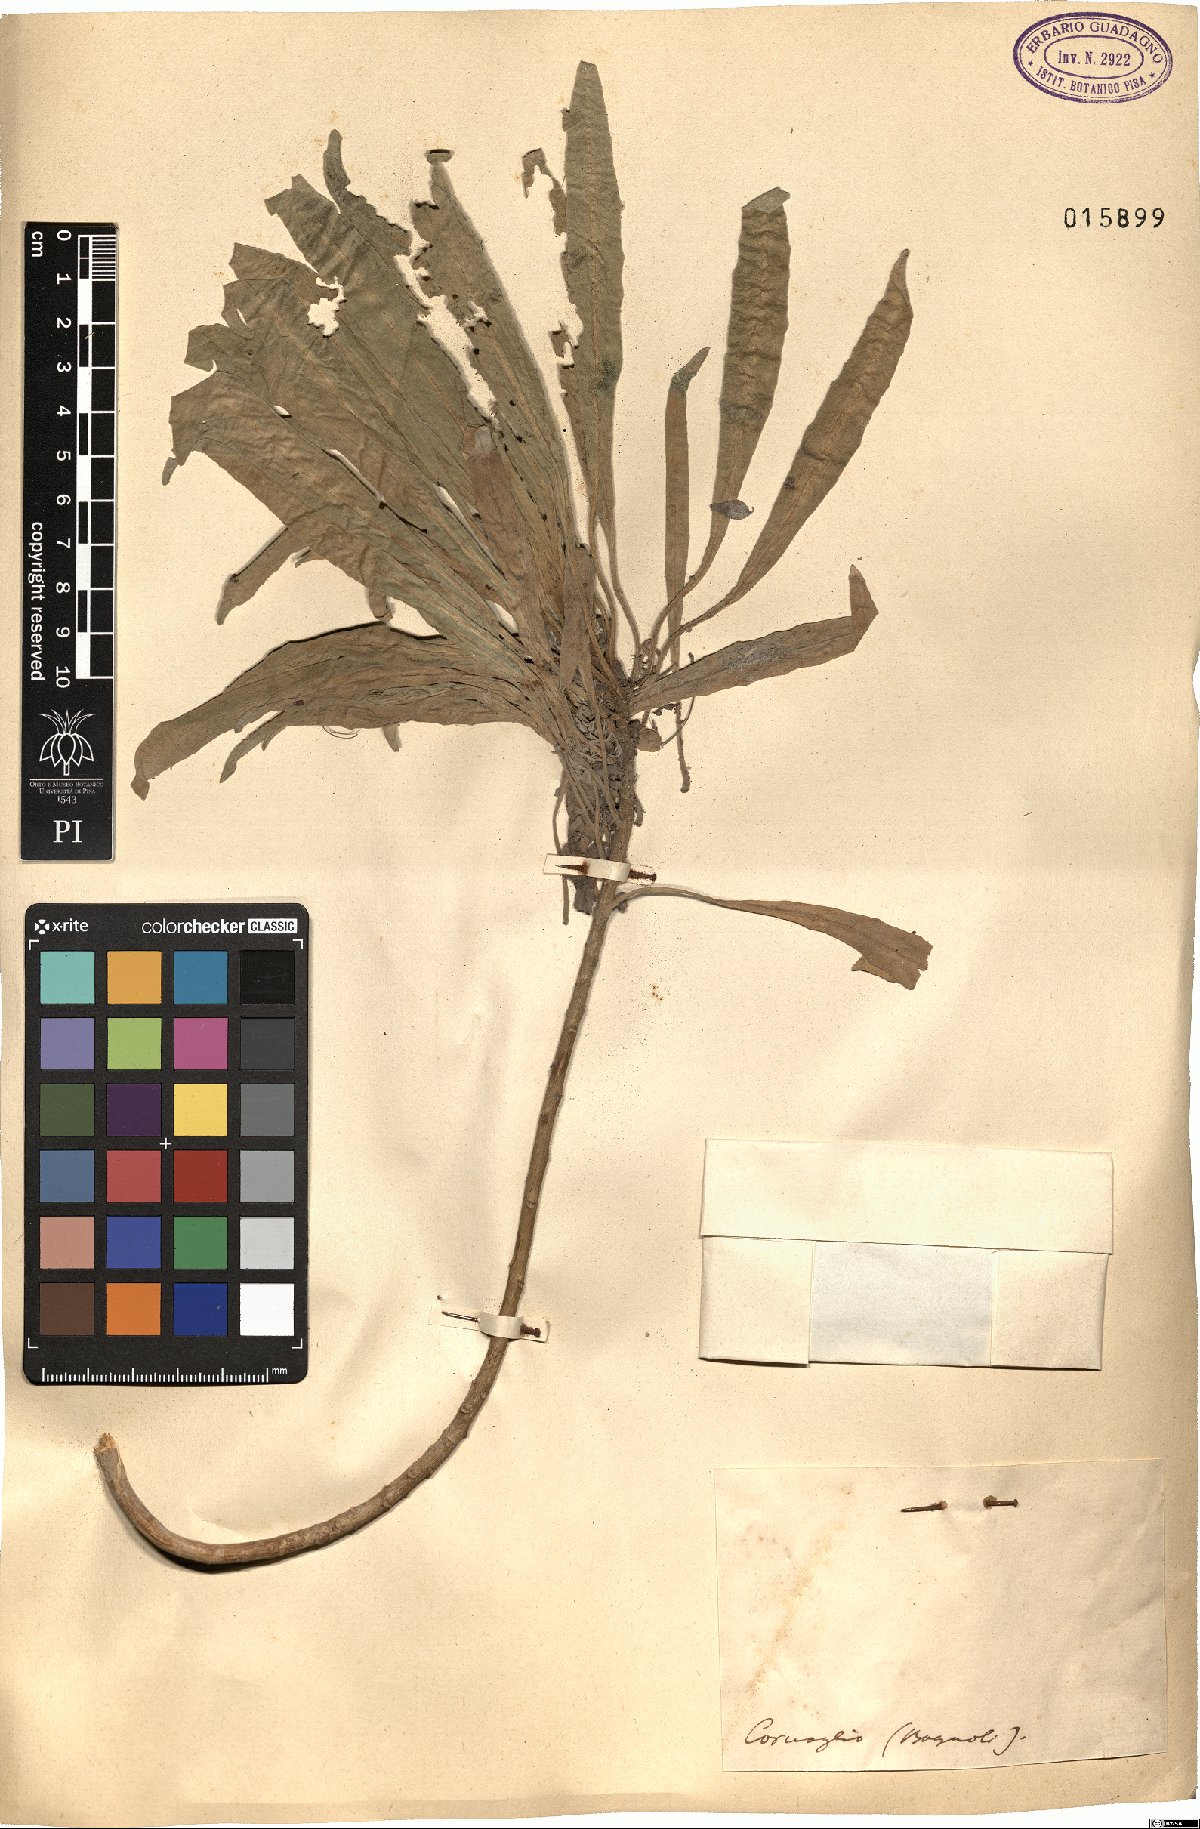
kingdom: Plantae
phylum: Tracheophyta
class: Magnoliopsida
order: Brassicales
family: Brassicaceae
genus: Matthiola
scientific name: Matthiola
